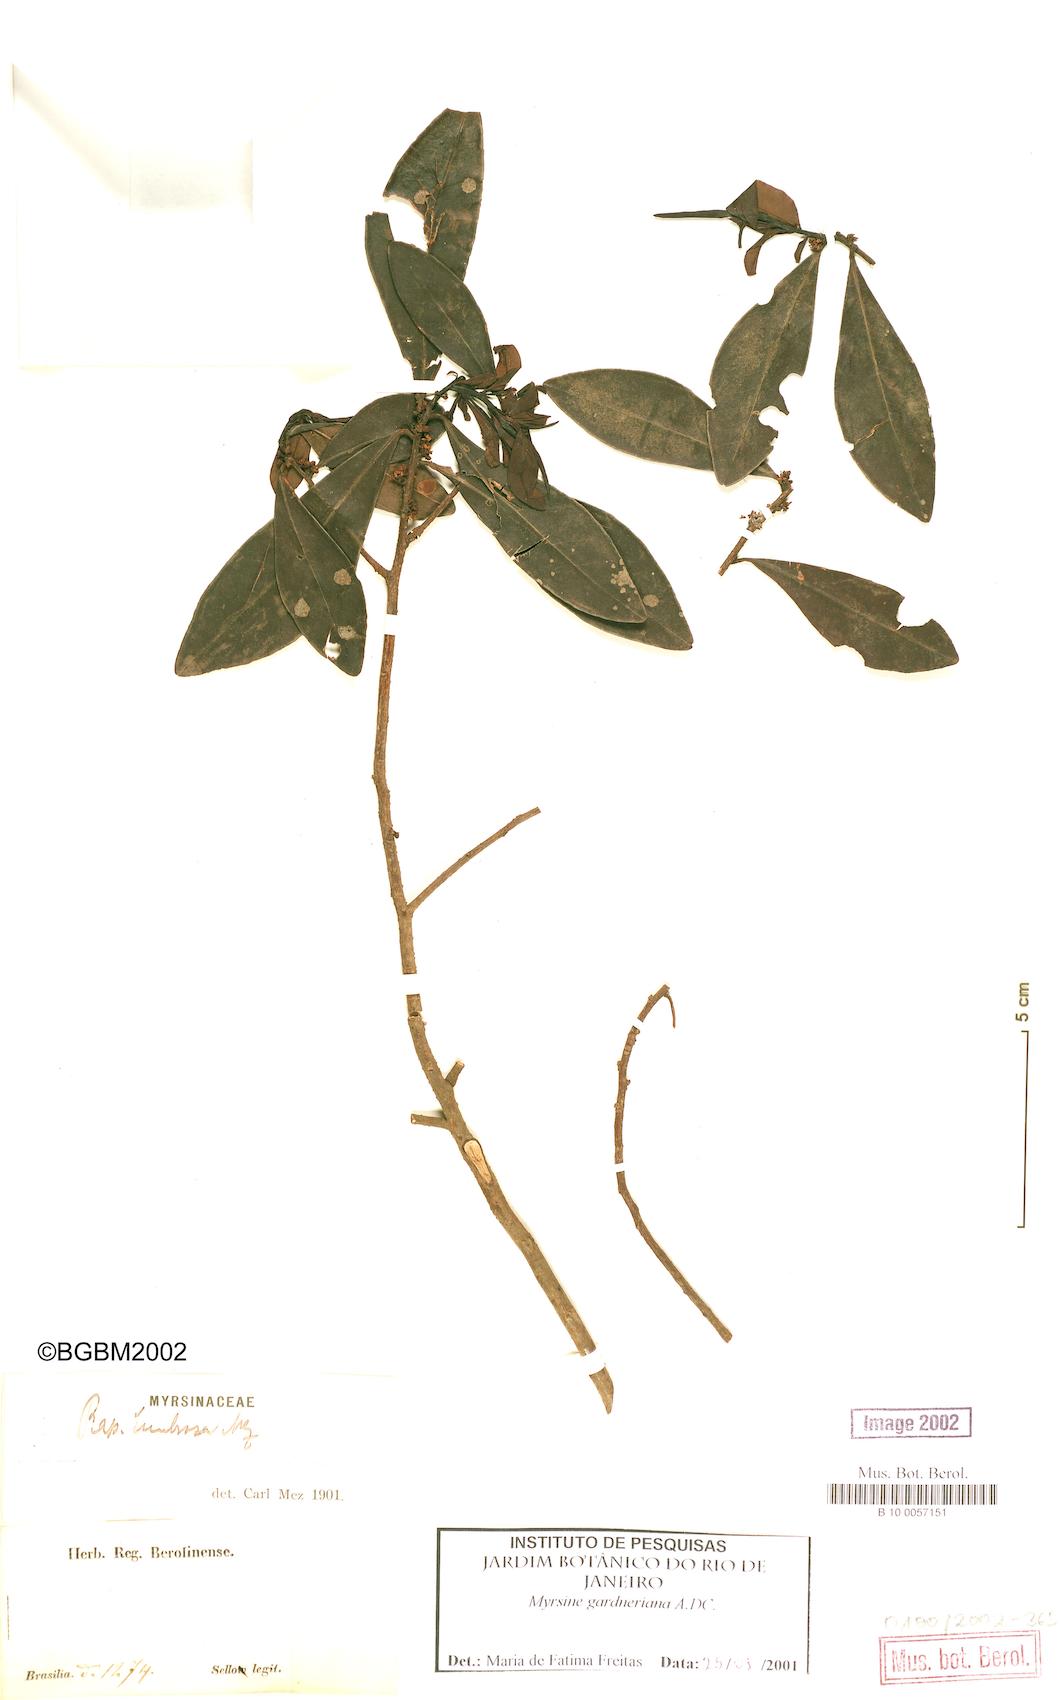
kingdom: Plantae
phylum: Tracheophyta
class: Magnoliopsida
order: Ericales
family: Primulaceae
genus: Myrsine
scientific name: Myrsine gardneriana
